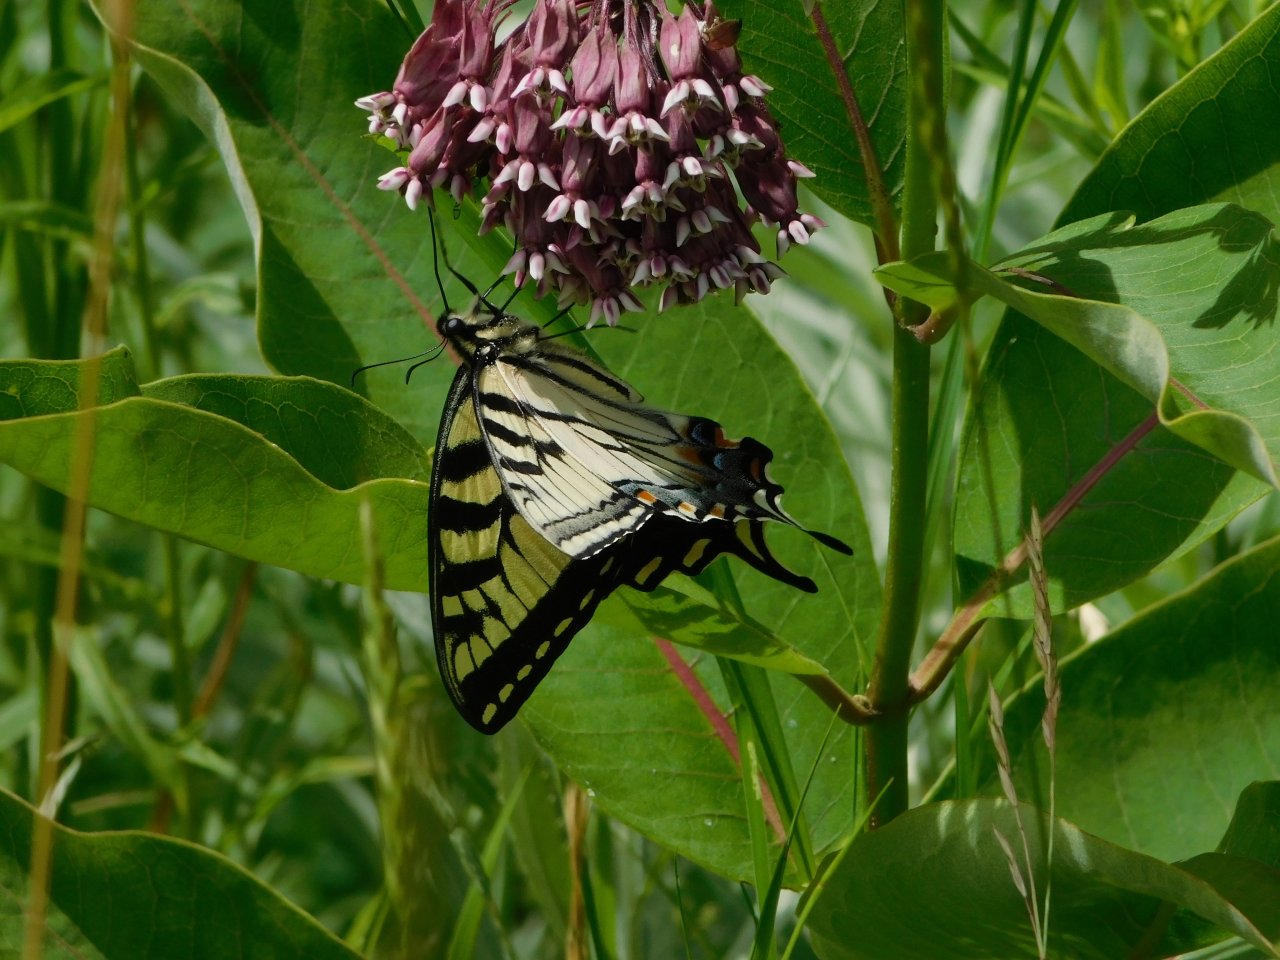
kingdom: Animalia
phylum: Arthropoda
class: Insecta
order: Lepidoptera
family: Papilionidae
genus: Pterourus
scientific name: Pterourus glaucus
